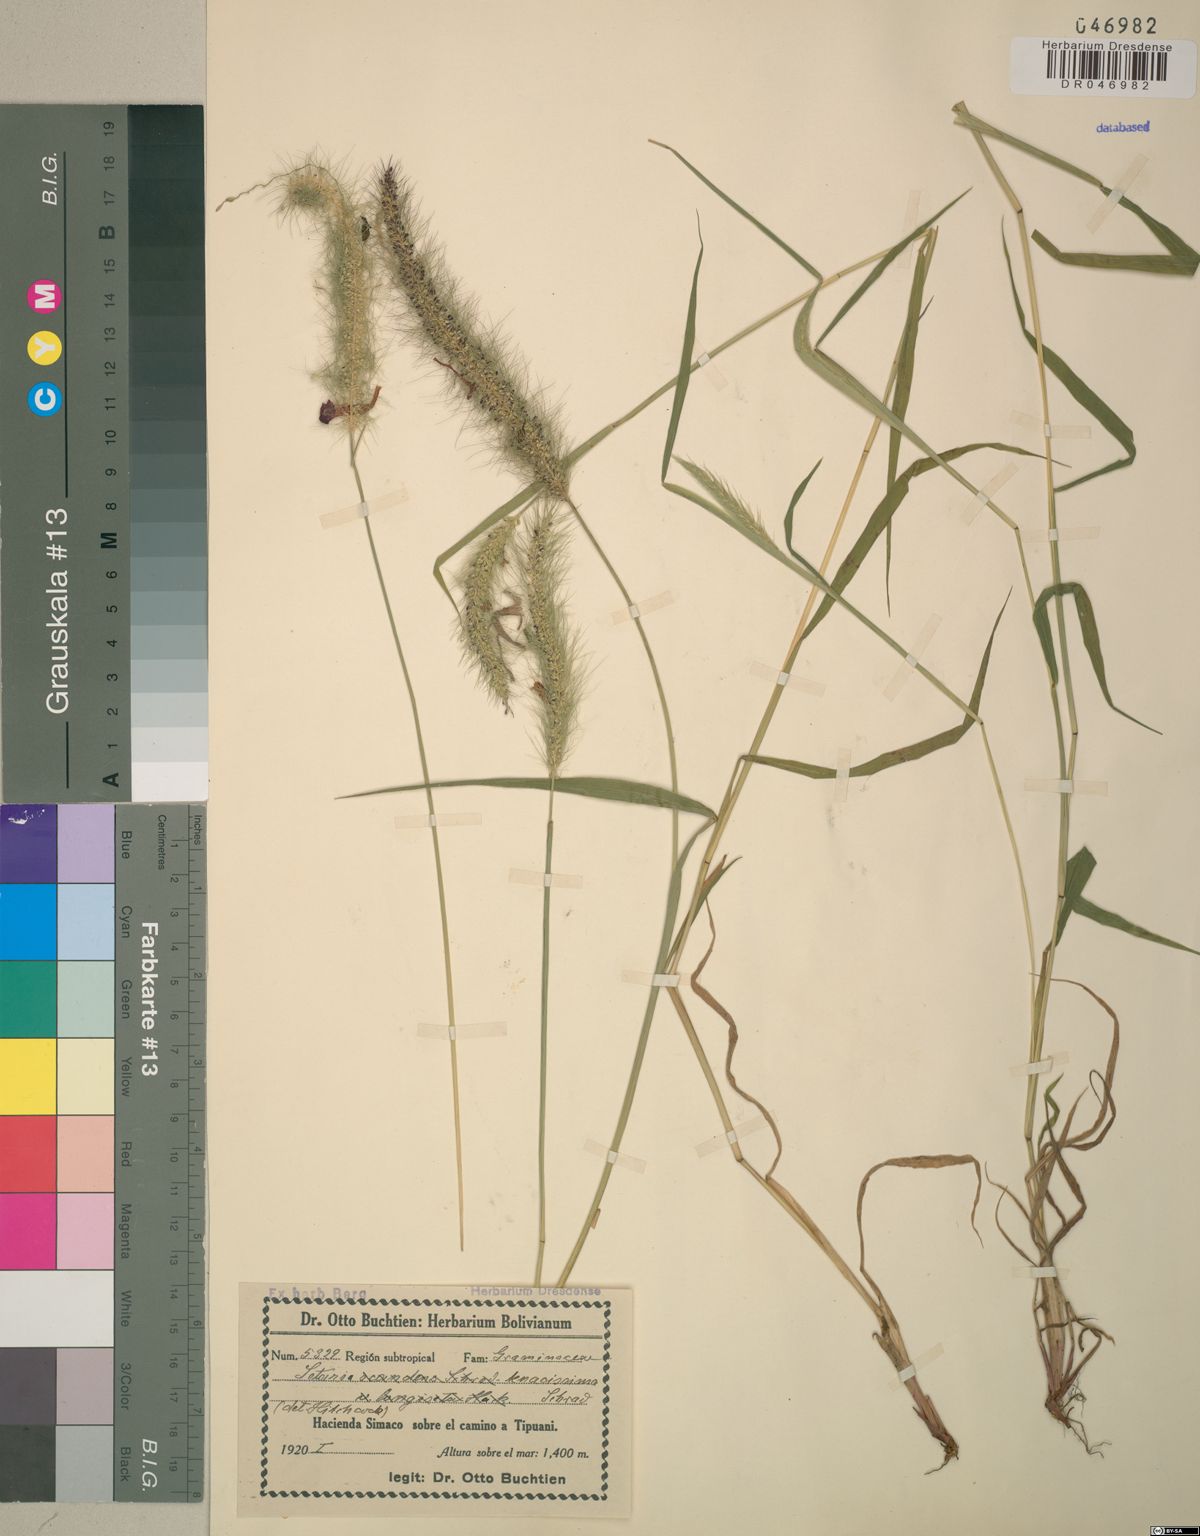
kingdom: Plantae
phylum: Tracheophyta
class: Liliopsida
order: Poales
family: Poaceae
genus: Setaria
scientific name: Setaria tenacissima
